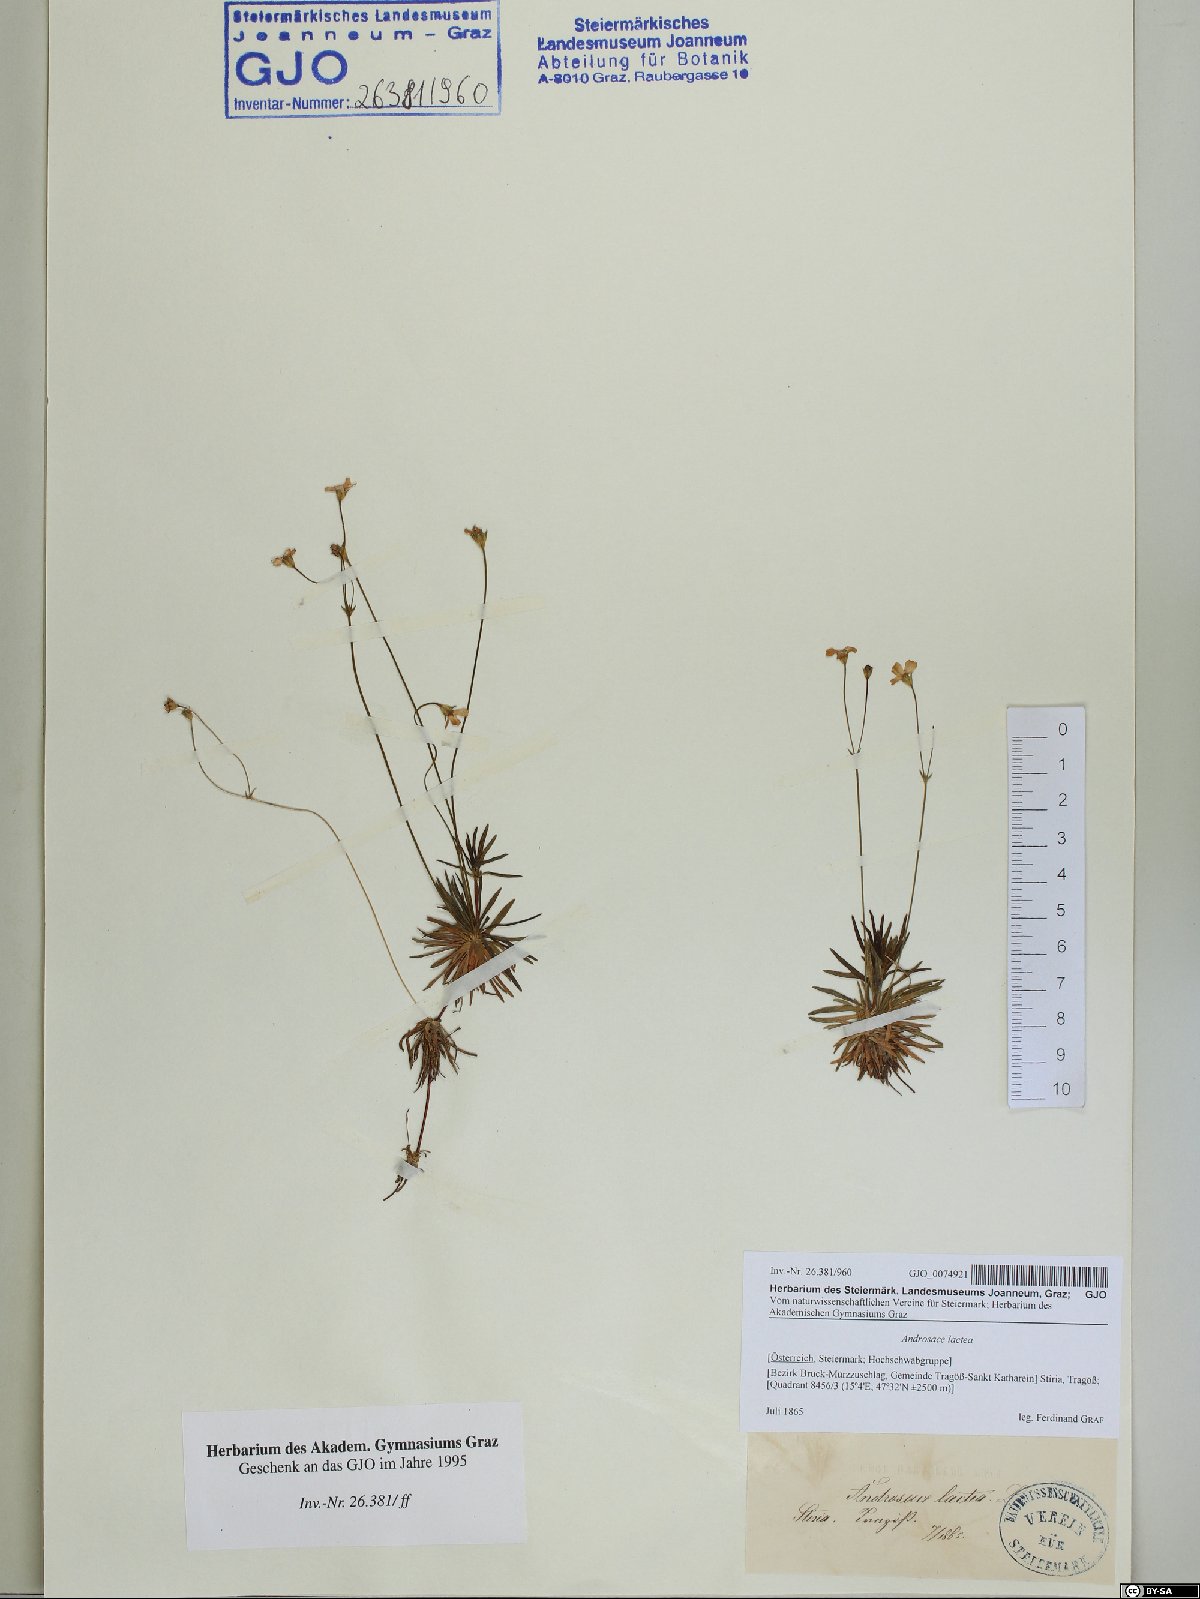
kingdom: Plantae
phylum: Tracheophyta
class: Magnoliopsida
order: Ericales
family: Primulaceae
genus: Androsace
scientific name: Androsace lactea
